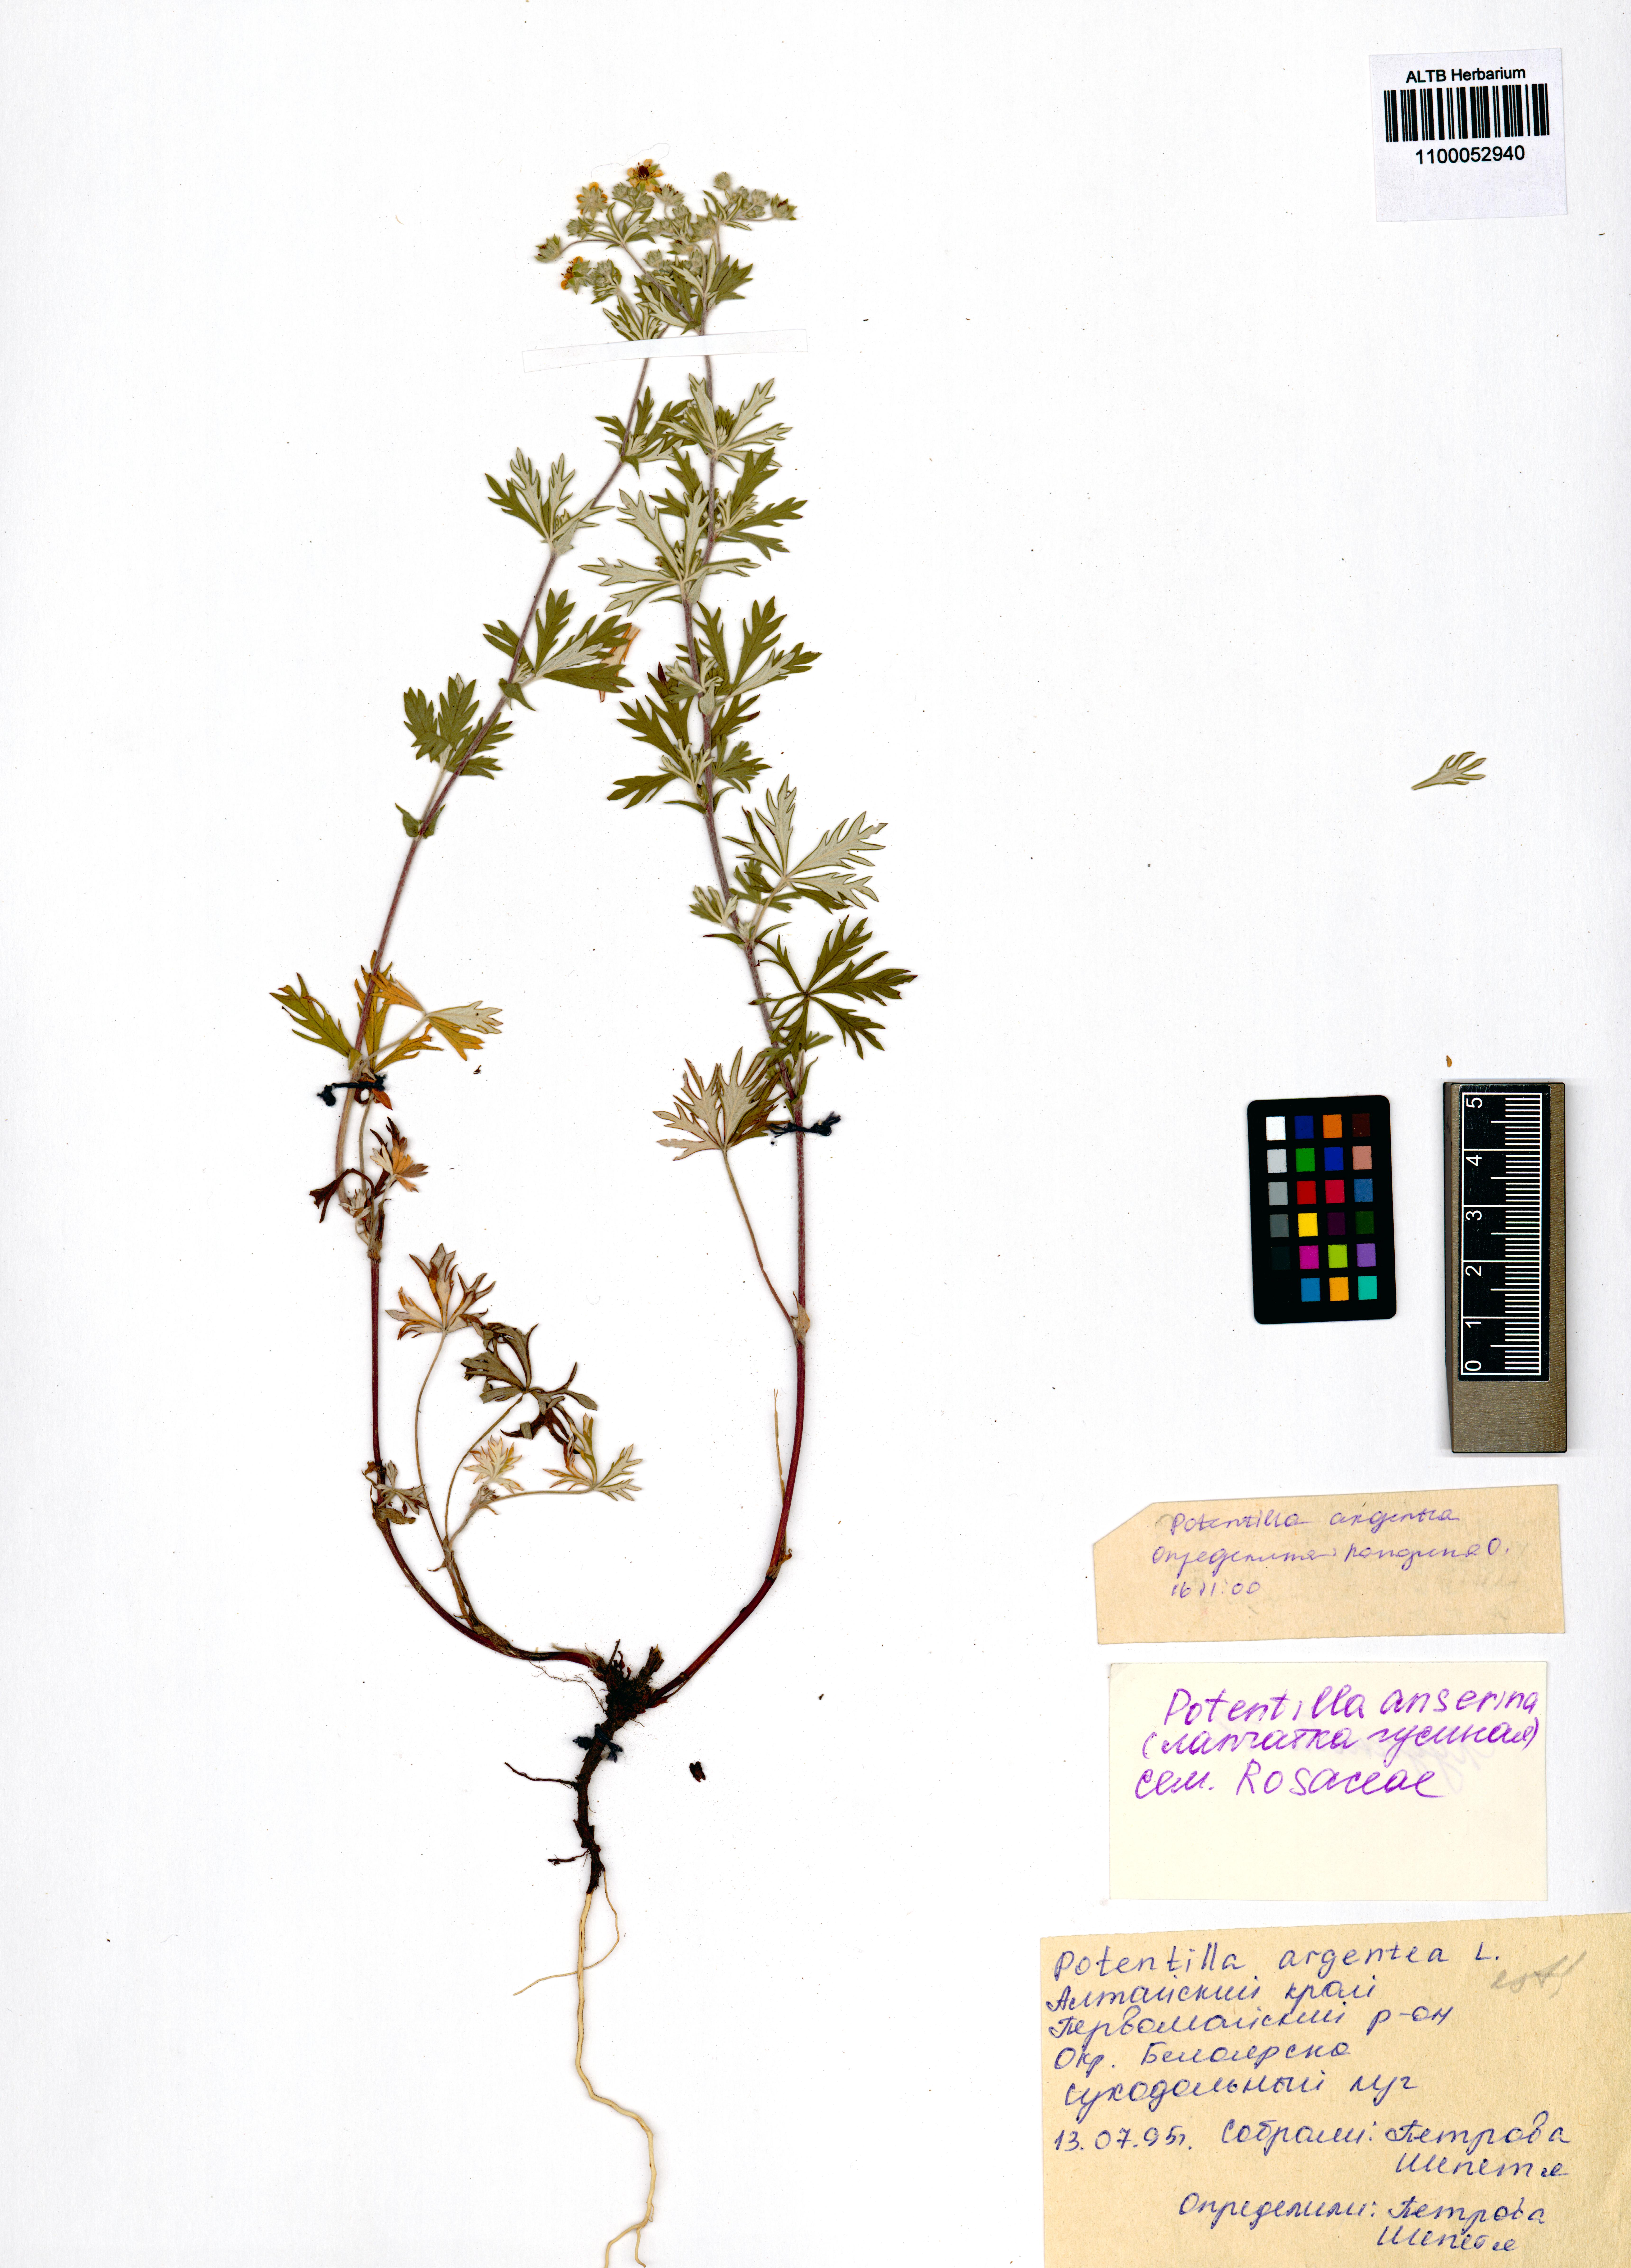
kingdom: Plantae
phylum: Tracheophyta
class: Magnoliopsida
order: Rosales
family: Rosaceae
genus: Potentilla
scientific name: Potentilla argentea
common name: Hoary cinquefoil
